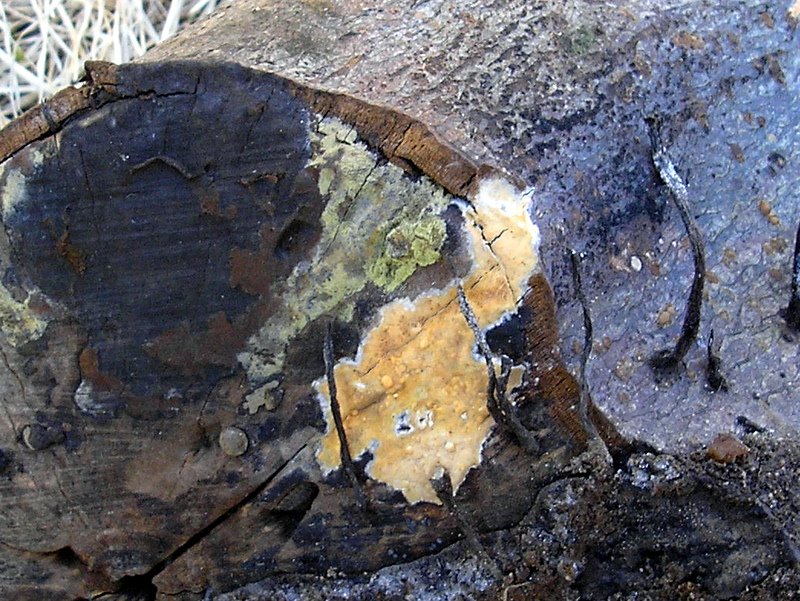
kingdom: Fungi
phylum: Ascomycota
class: Sordariomycetes
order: Xylariales
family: Hypoxylaceae
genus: Hypoxylon
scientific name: Hypoxylon rubiginosum
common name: rustfarvet kulbær
